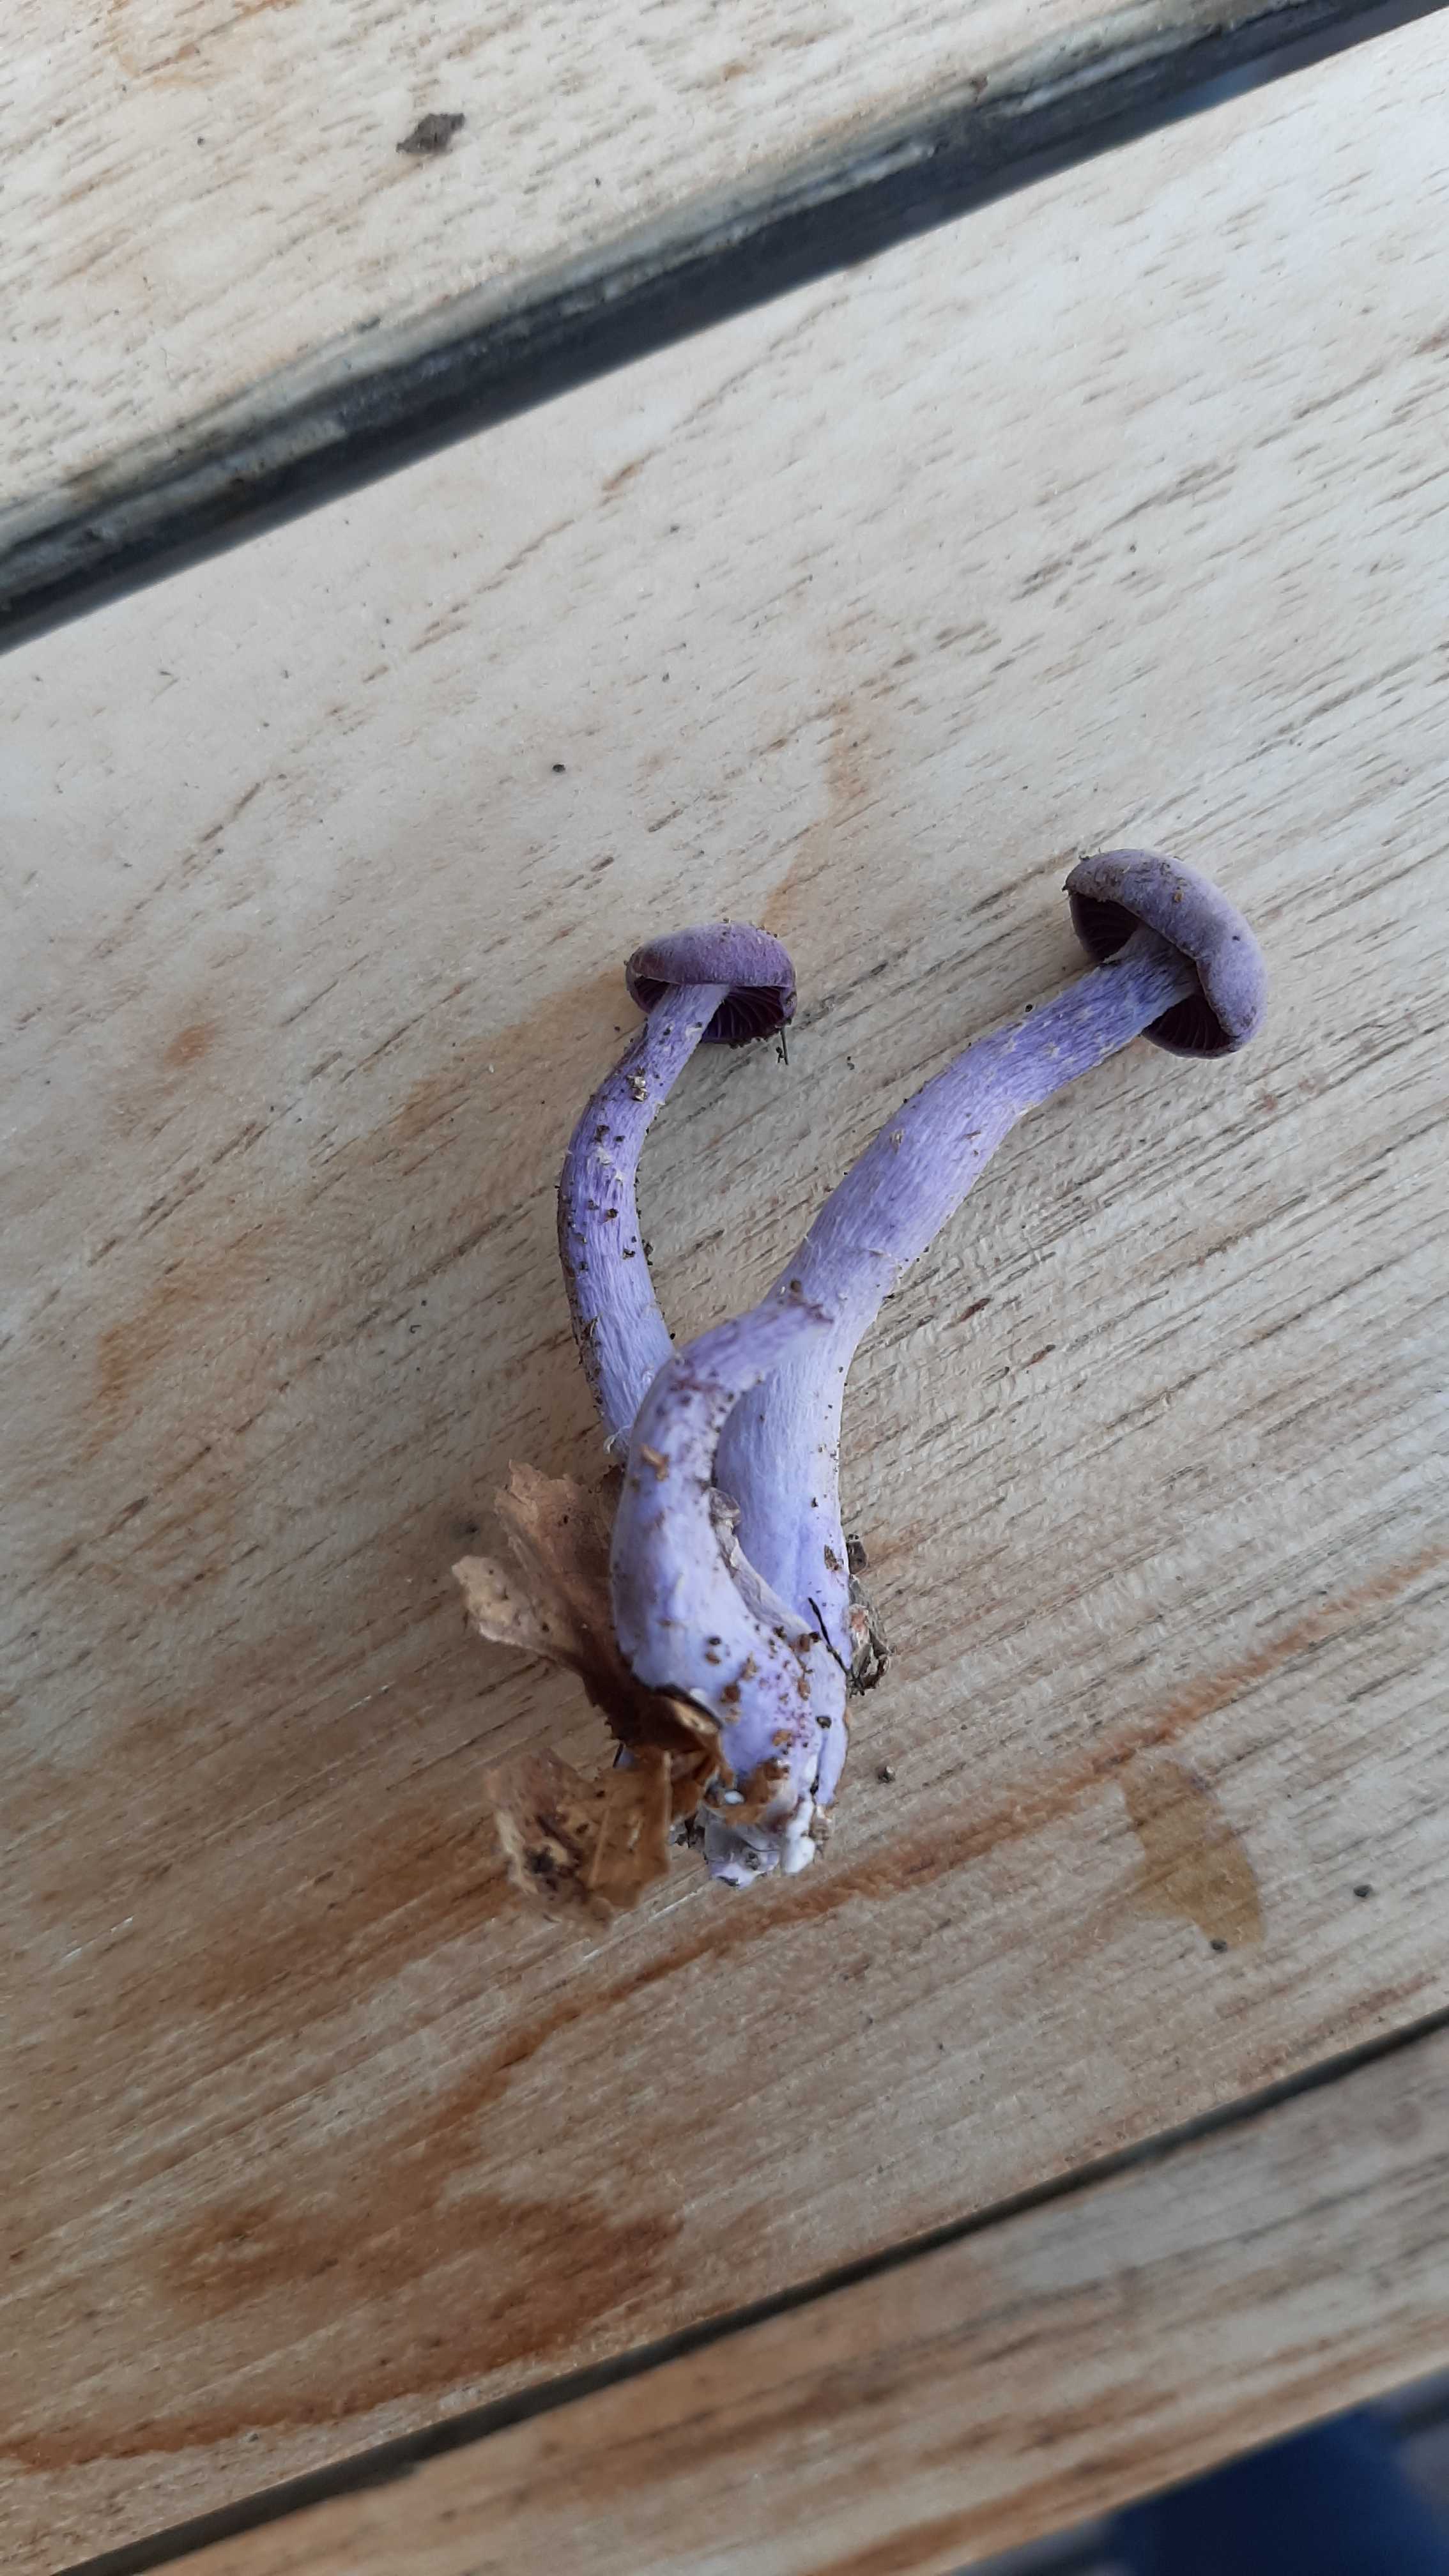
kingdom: Fungi
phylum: Basidiomycota
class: Agaricomycetes
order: Agaricales
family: Hydnangiaceae
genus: Laccaria
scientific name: Laccaria amethystina
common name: violet ametysthat
